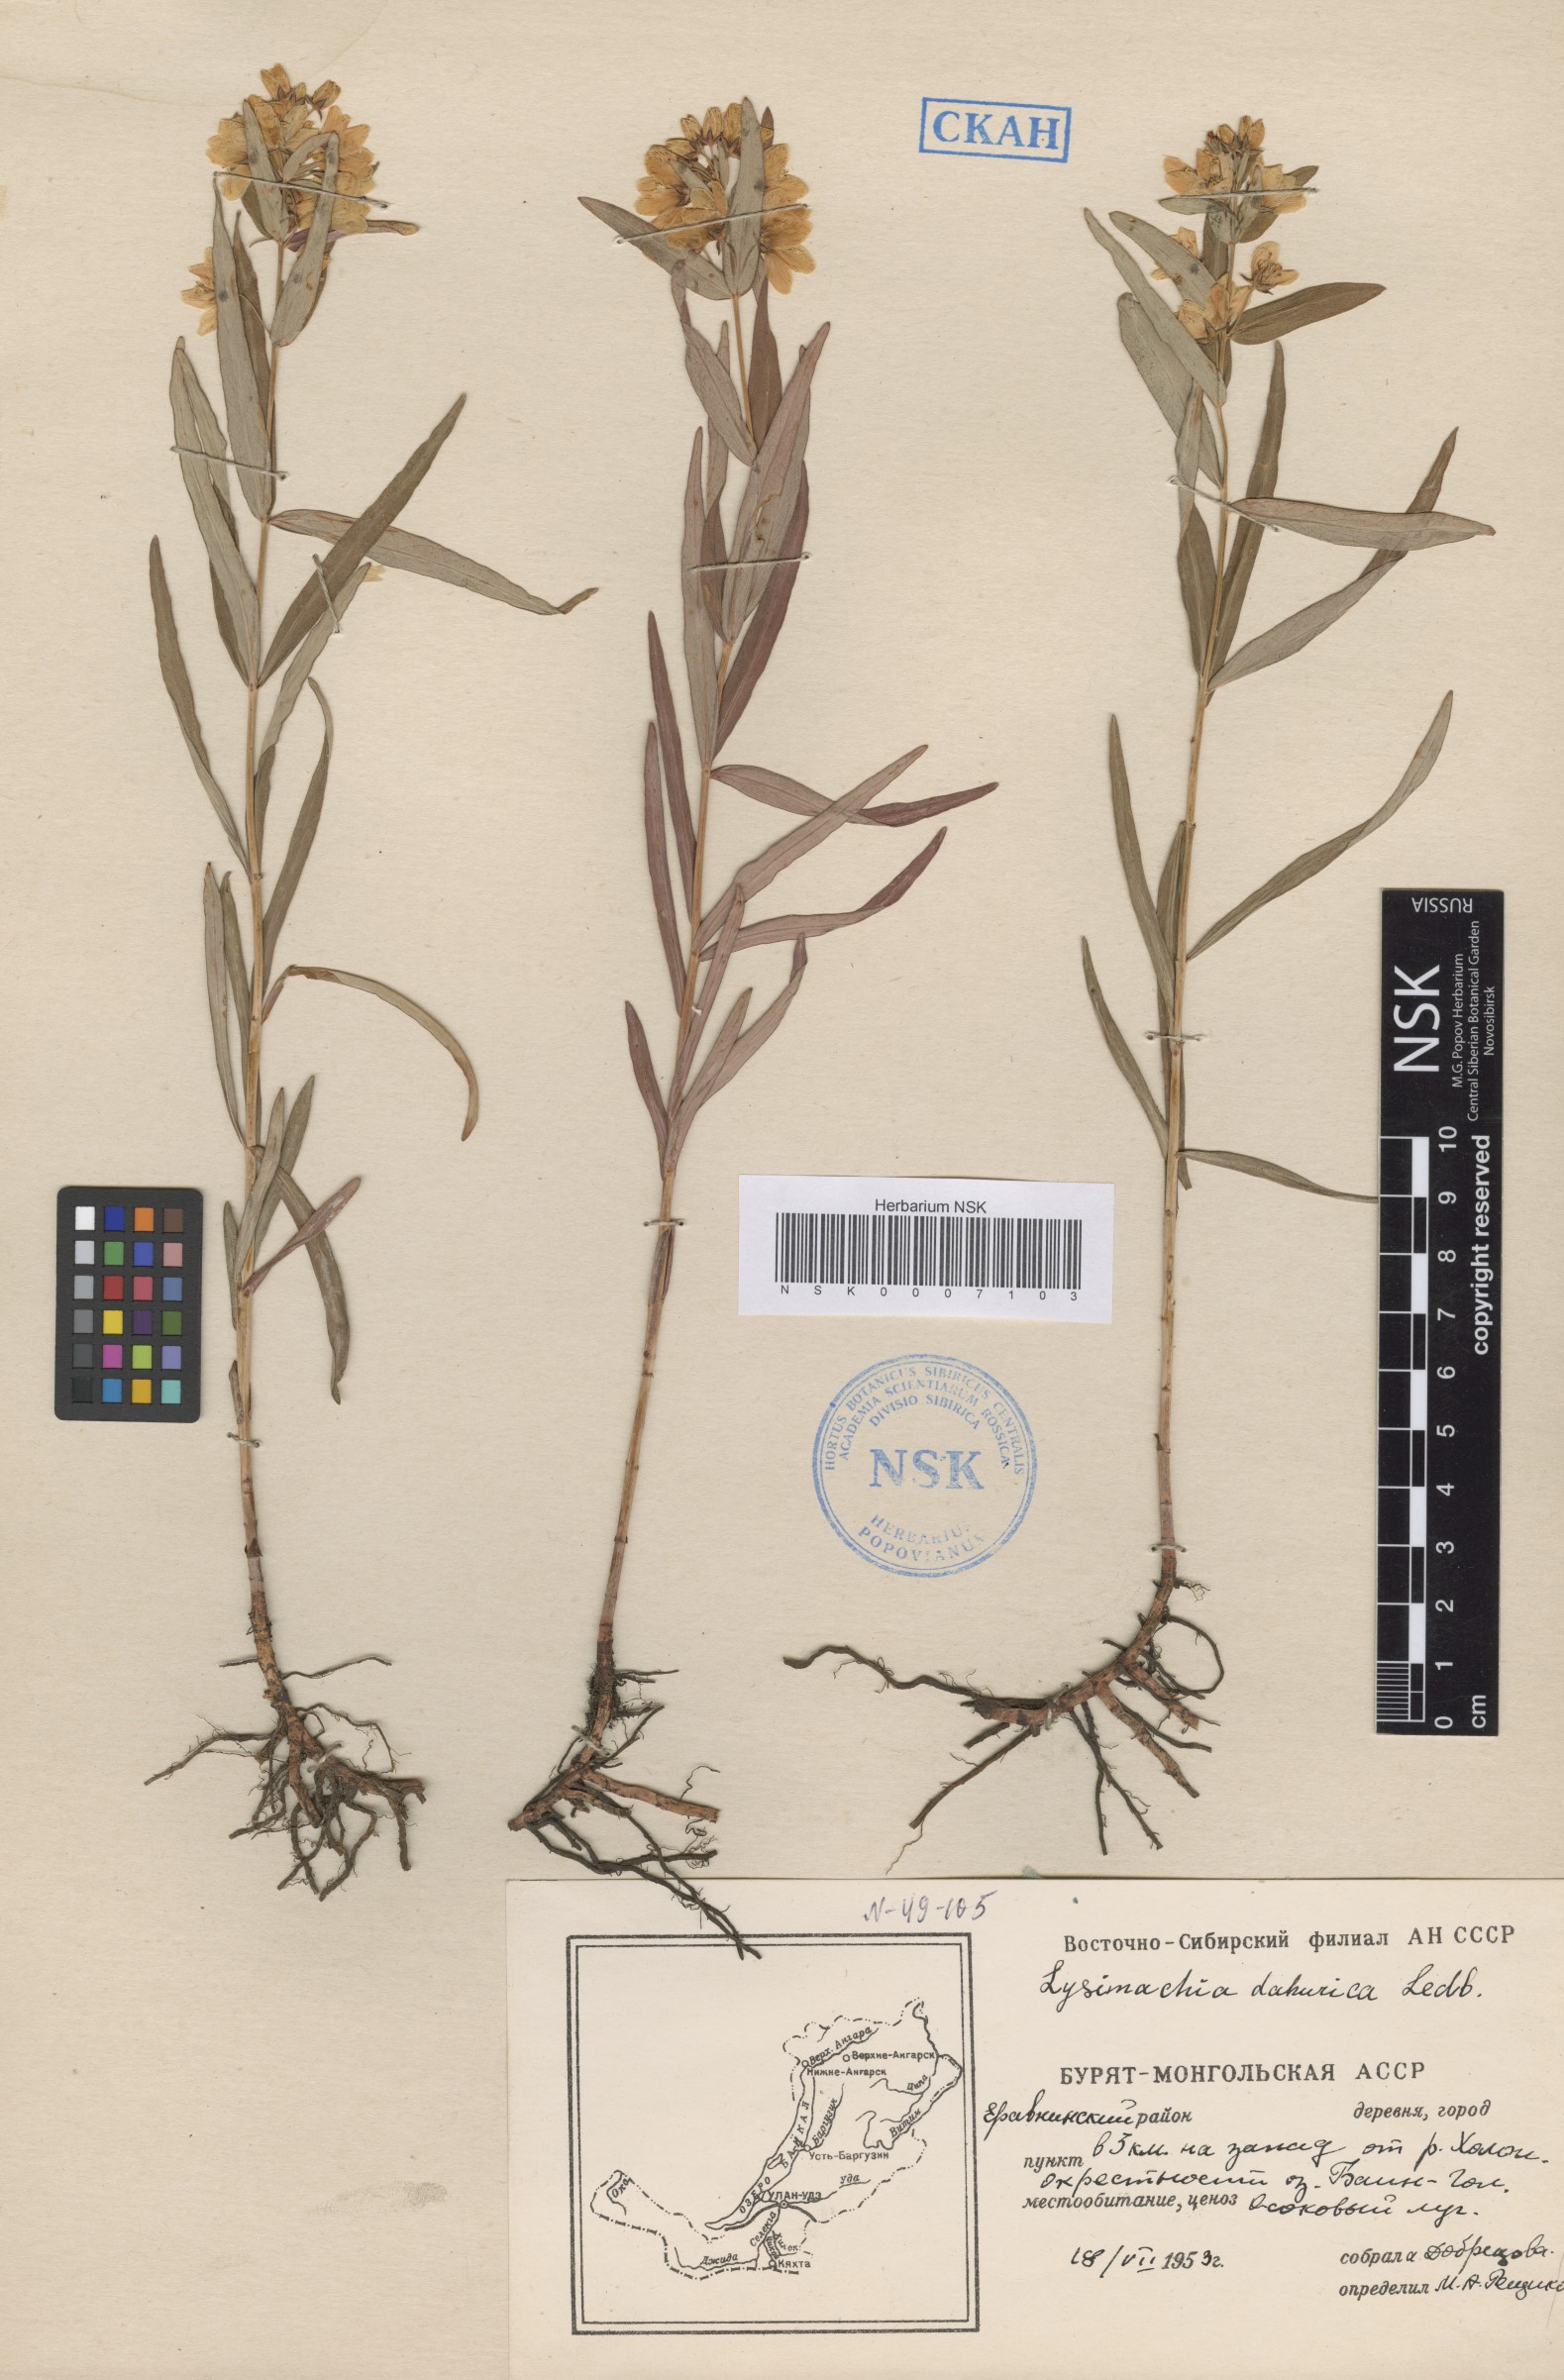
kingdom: Plantae
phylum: Tracheophyta
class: Magnoliopsida
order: Ericales
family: Primulaceae
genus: Lysimachia
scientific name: Lysimachia davurica
